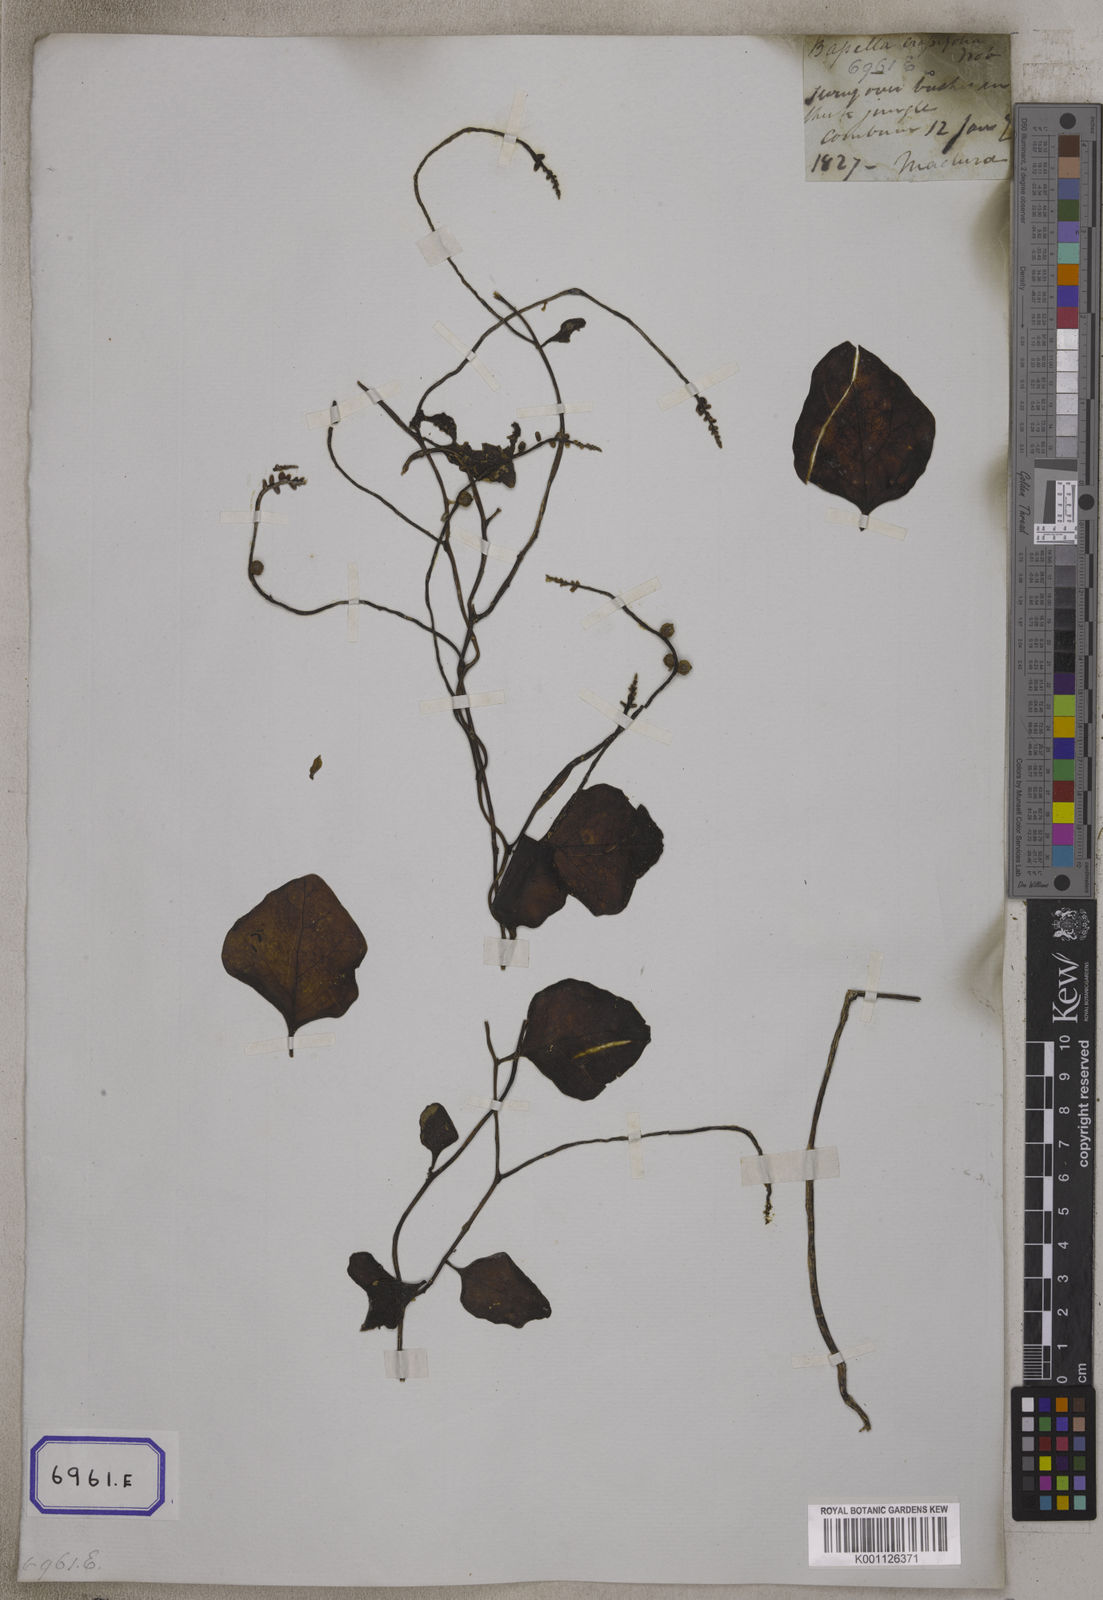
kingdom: Plantae
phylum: Tracheophyta
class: Magnoliopsida
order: Caryophyllales
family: Basellaceae
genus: Basella
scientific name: Basella alba
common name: Indian spinach
